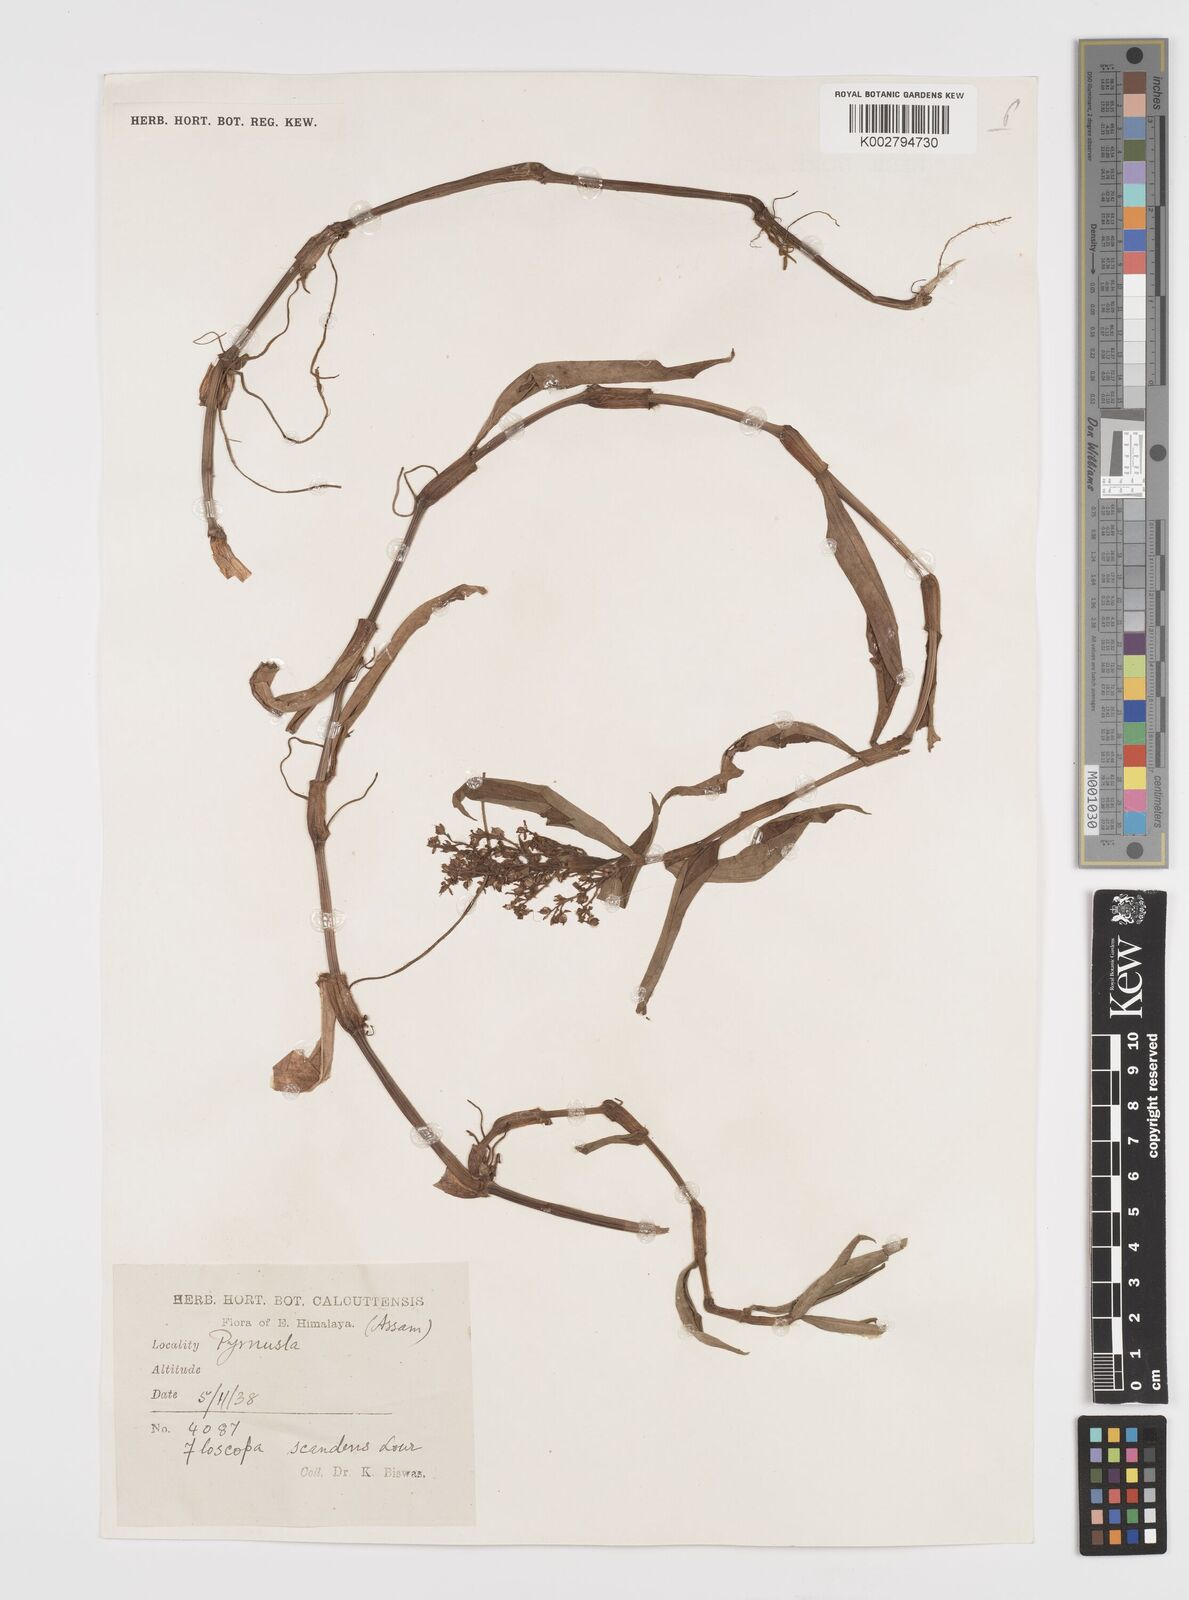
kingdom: Plantae
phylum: Tracheophyta
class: Liliopsida
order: Commelinales
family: Commelinaceae
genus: Floscopa
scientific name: Floscopa scandens
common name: Climbing flower cup
